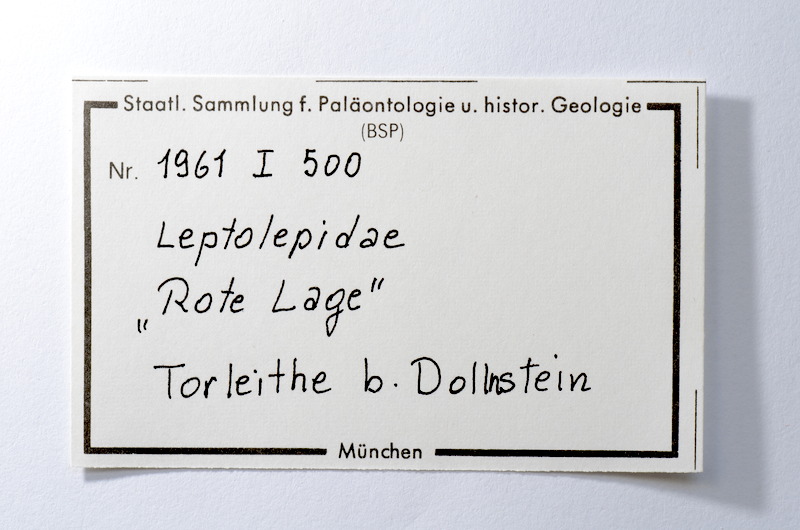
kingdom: Animalia
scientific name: Animalia
